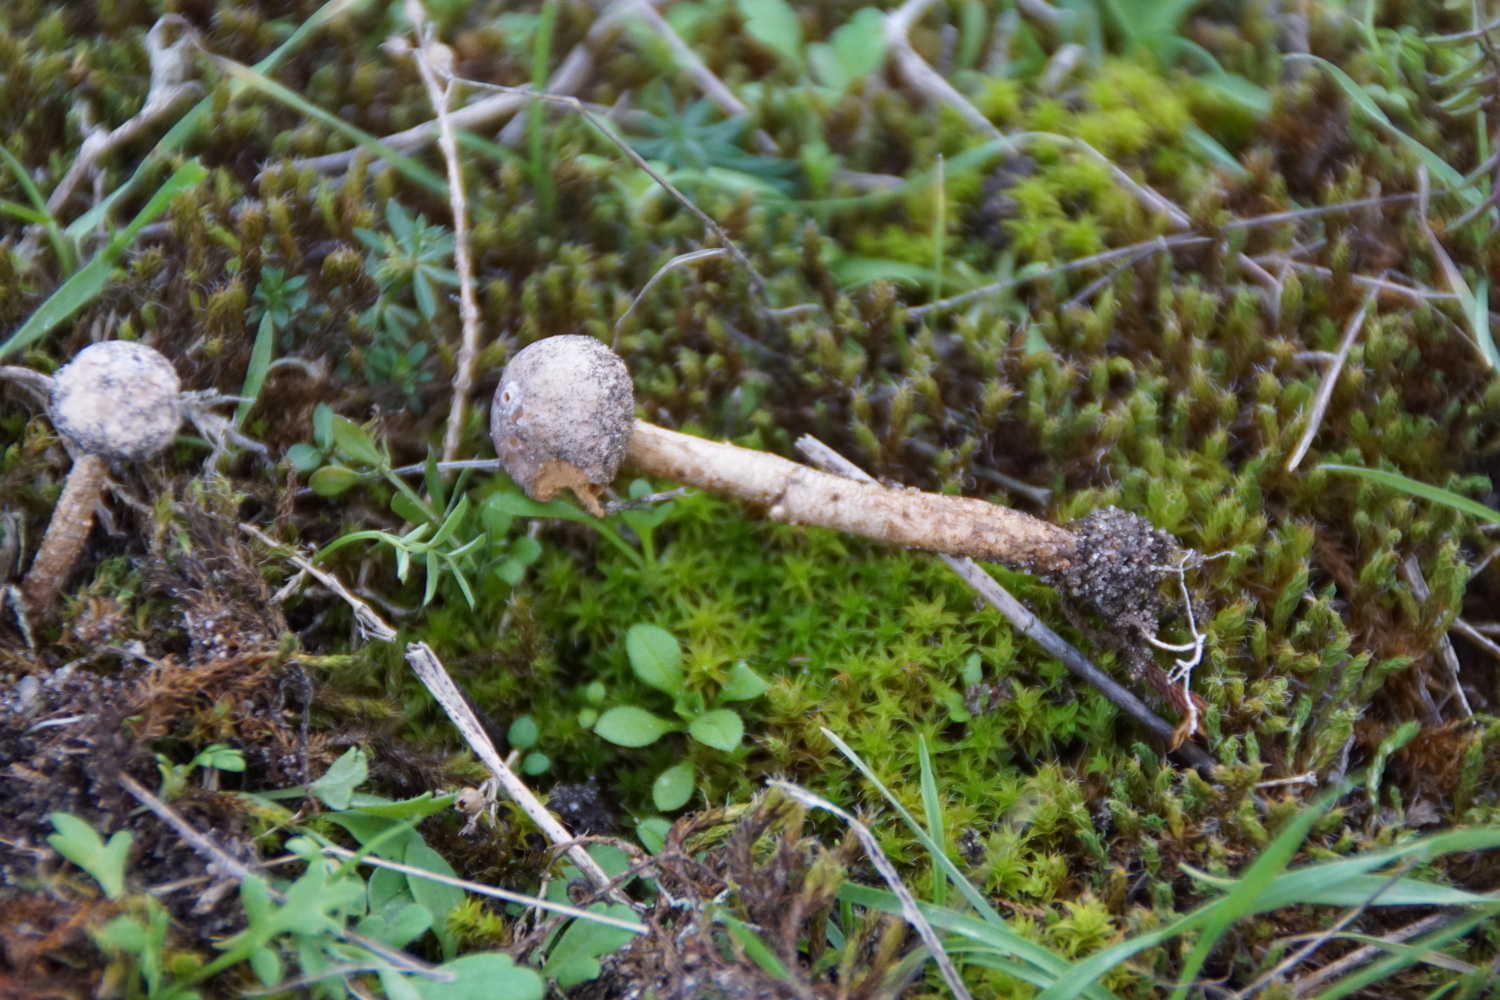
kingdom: Fungi
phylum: Basidiomycota
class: Agaricomycetes
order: Agaricales
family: Agaricaceae
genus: Tulostoma
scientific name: Tulostoma brumale
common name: vinter-stilkbovist
